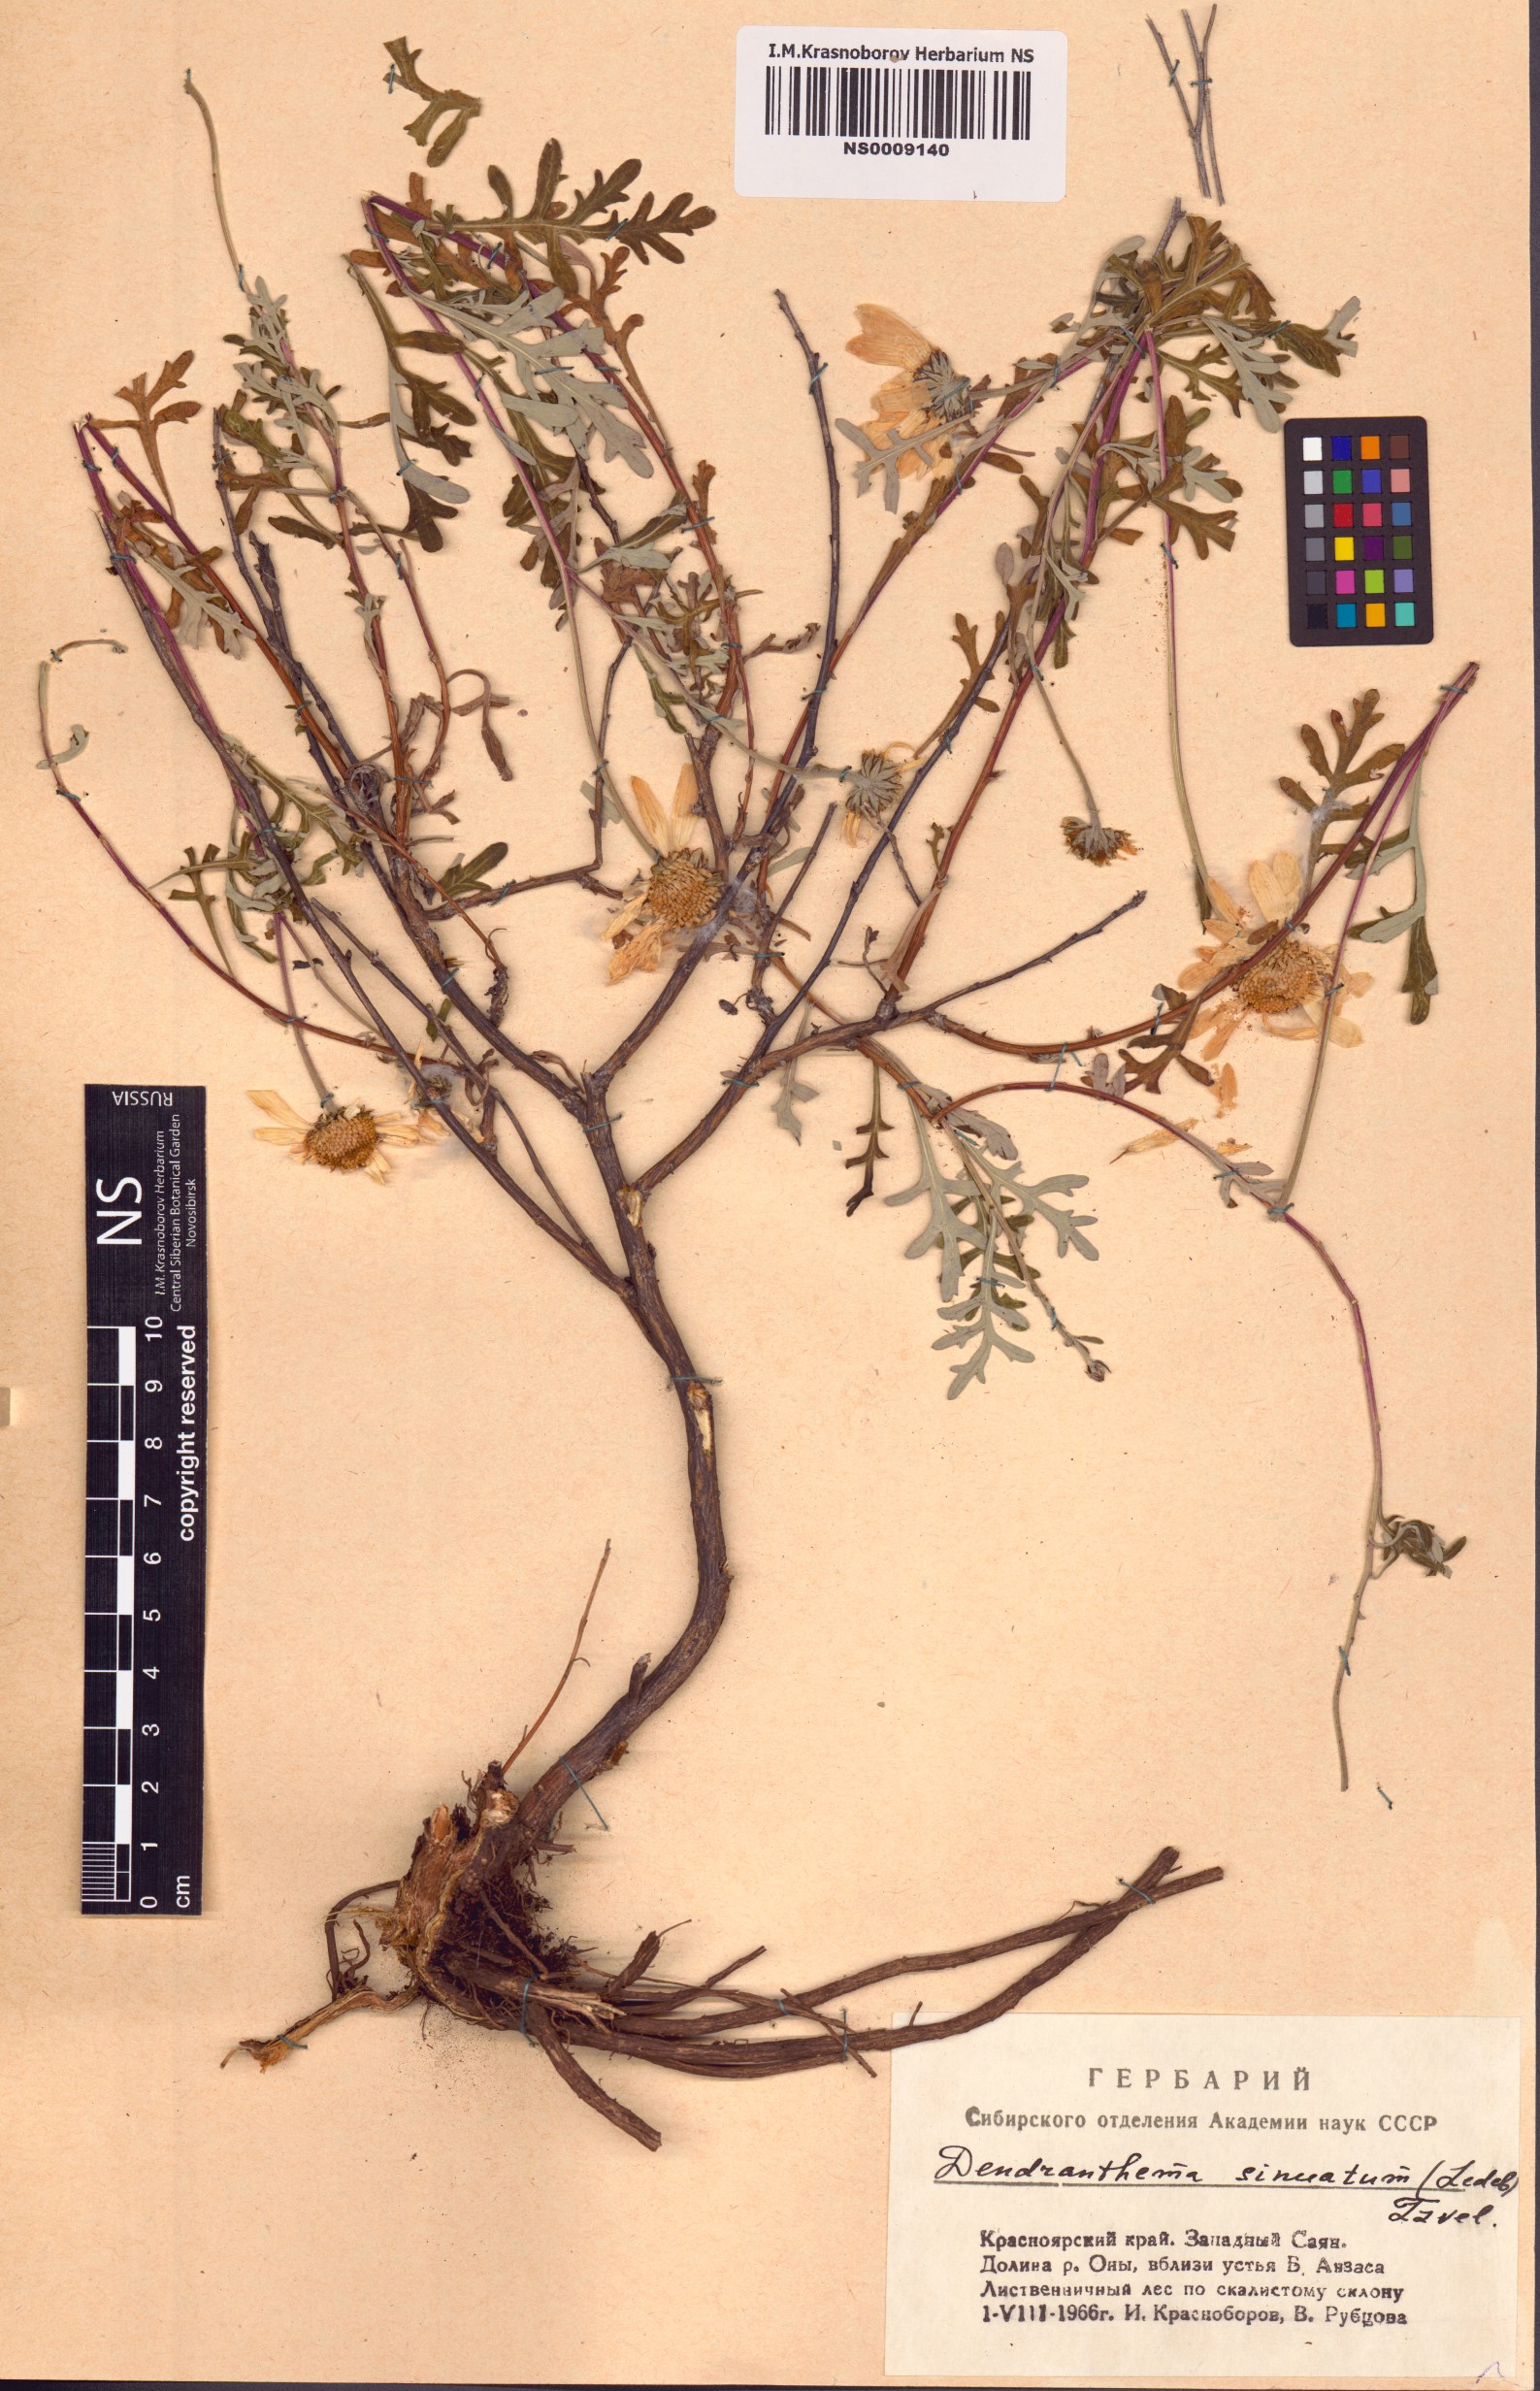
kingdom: Plantae
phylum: Tracheophyta
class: Magnoliopsida
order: Asterales
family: Asteraceae
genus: Chrysanthemum
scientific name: Chrysanthemum sinuatum
